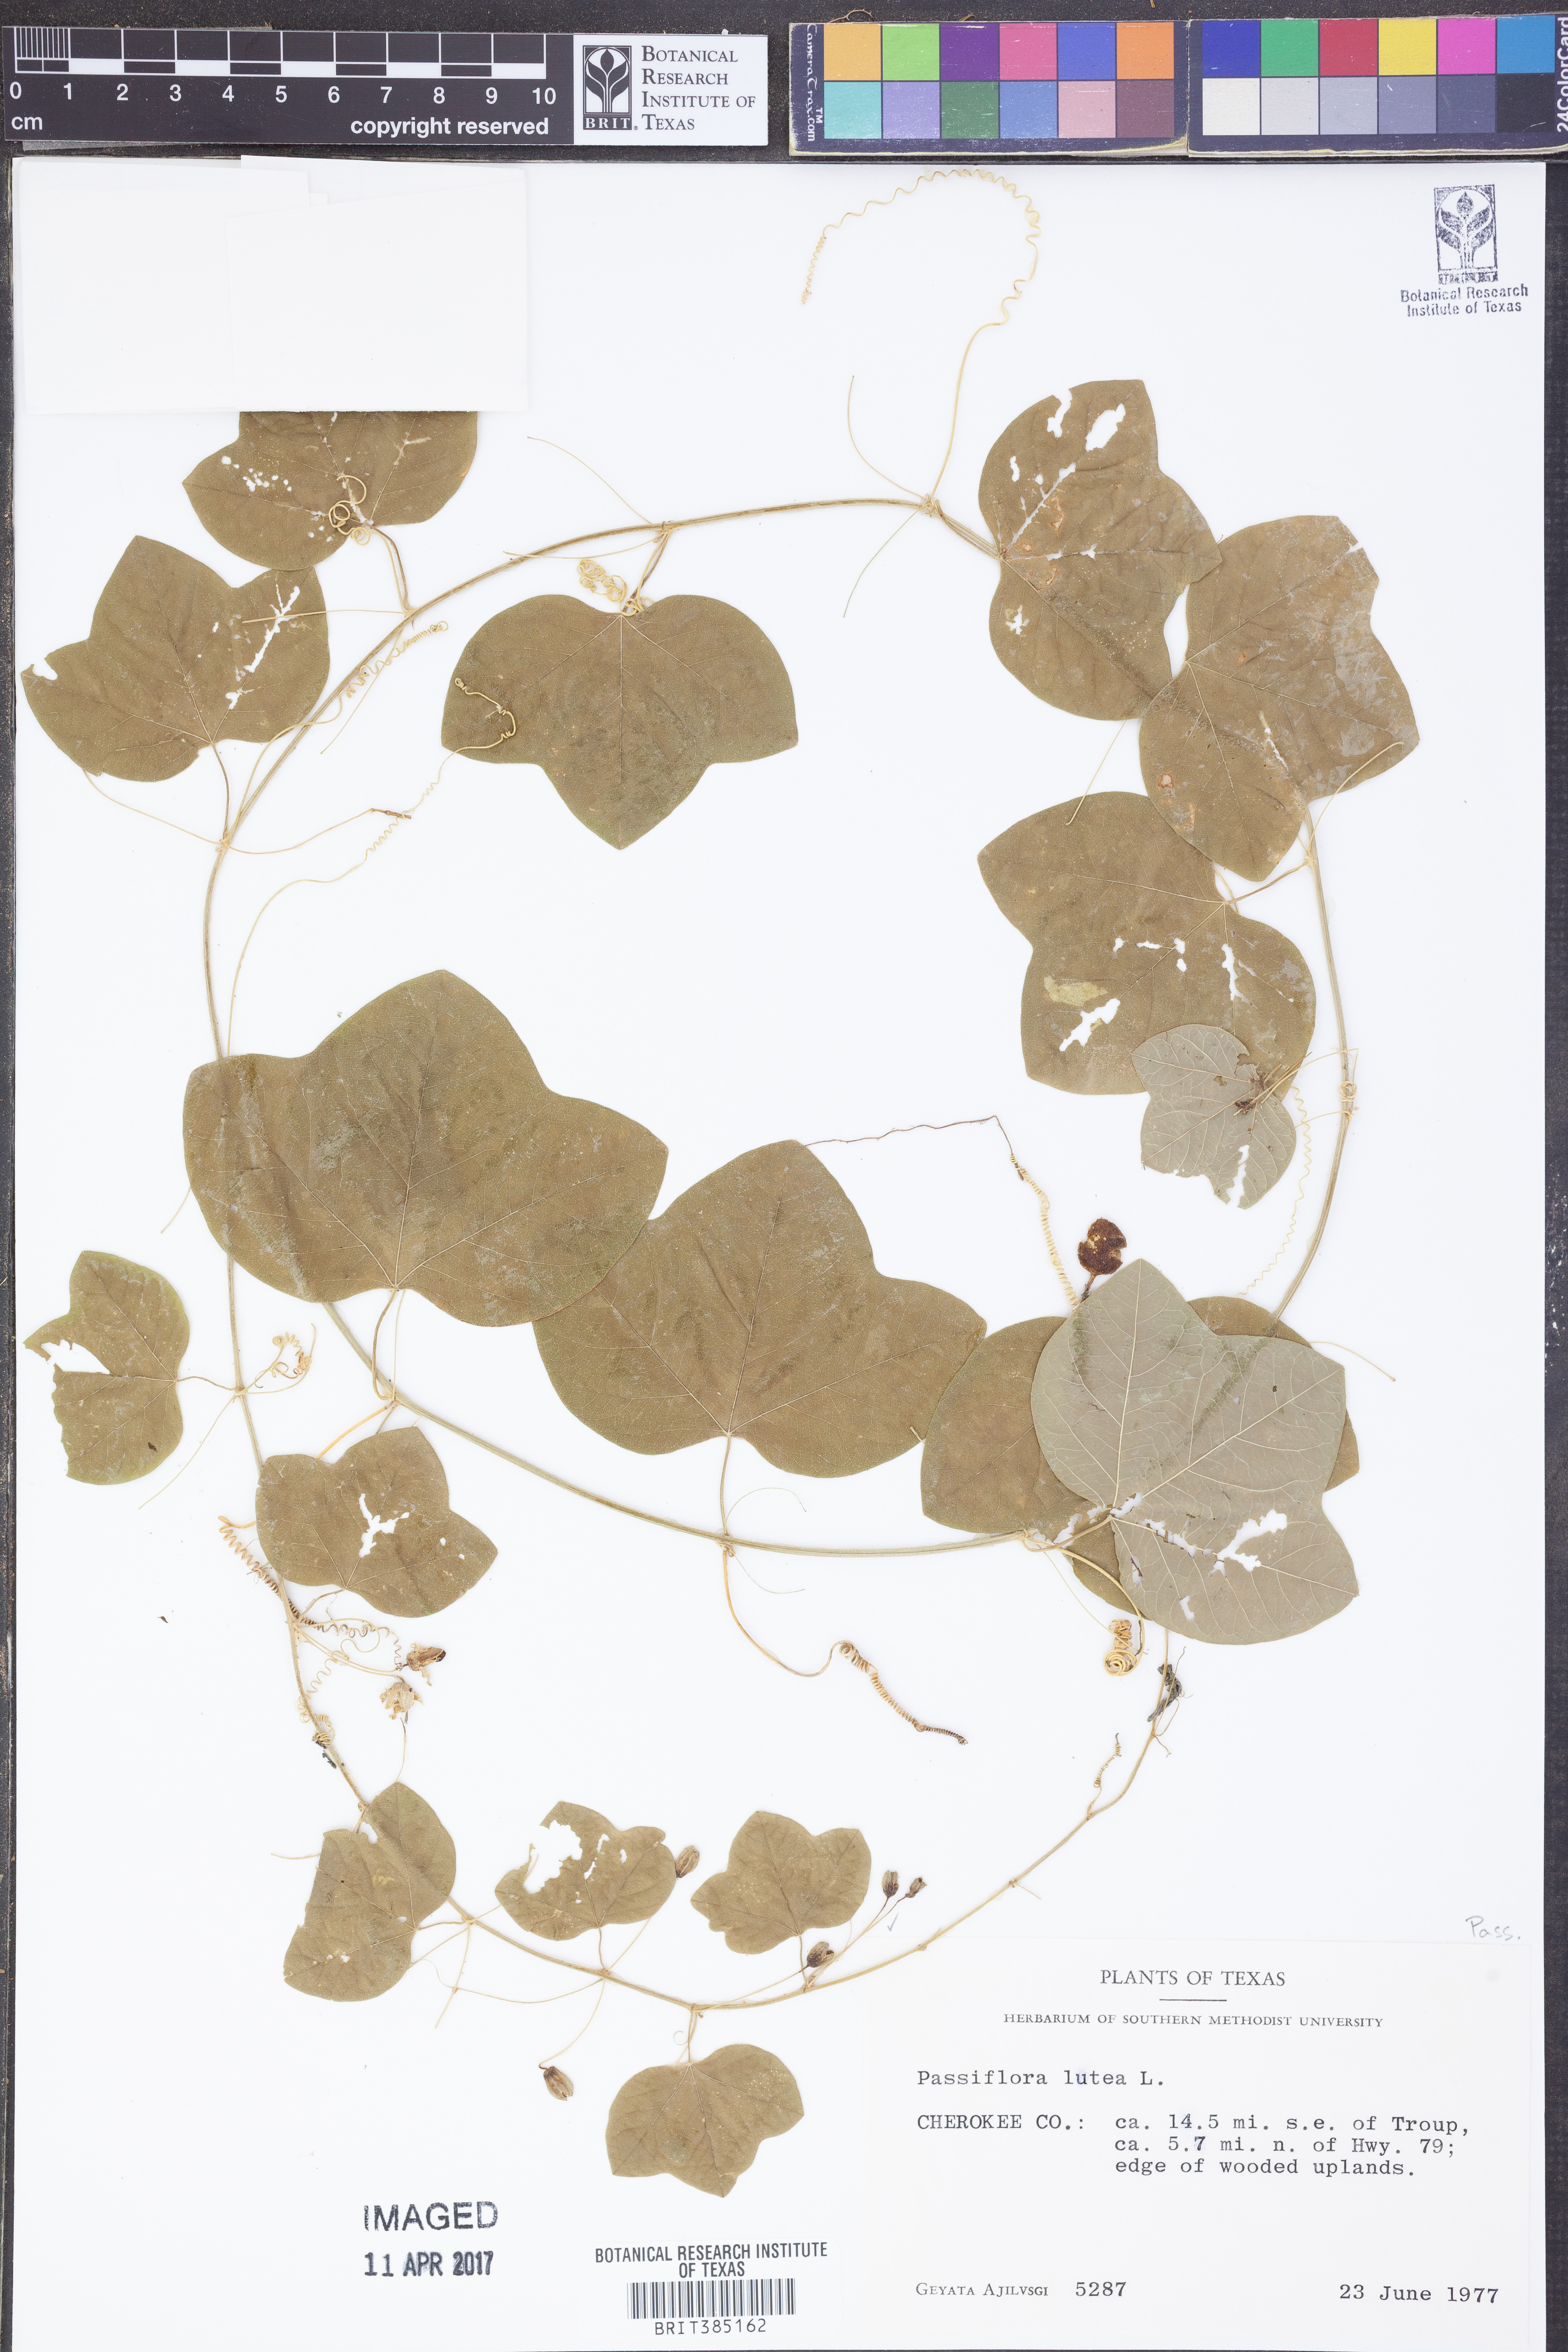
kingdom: Plantae
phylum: Tracheophyta
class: Magnoliopsida
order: Malpighiales
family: Passifloraceae
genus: Passiflora
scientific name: Passiflora lutea
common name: Yellow passionflower
